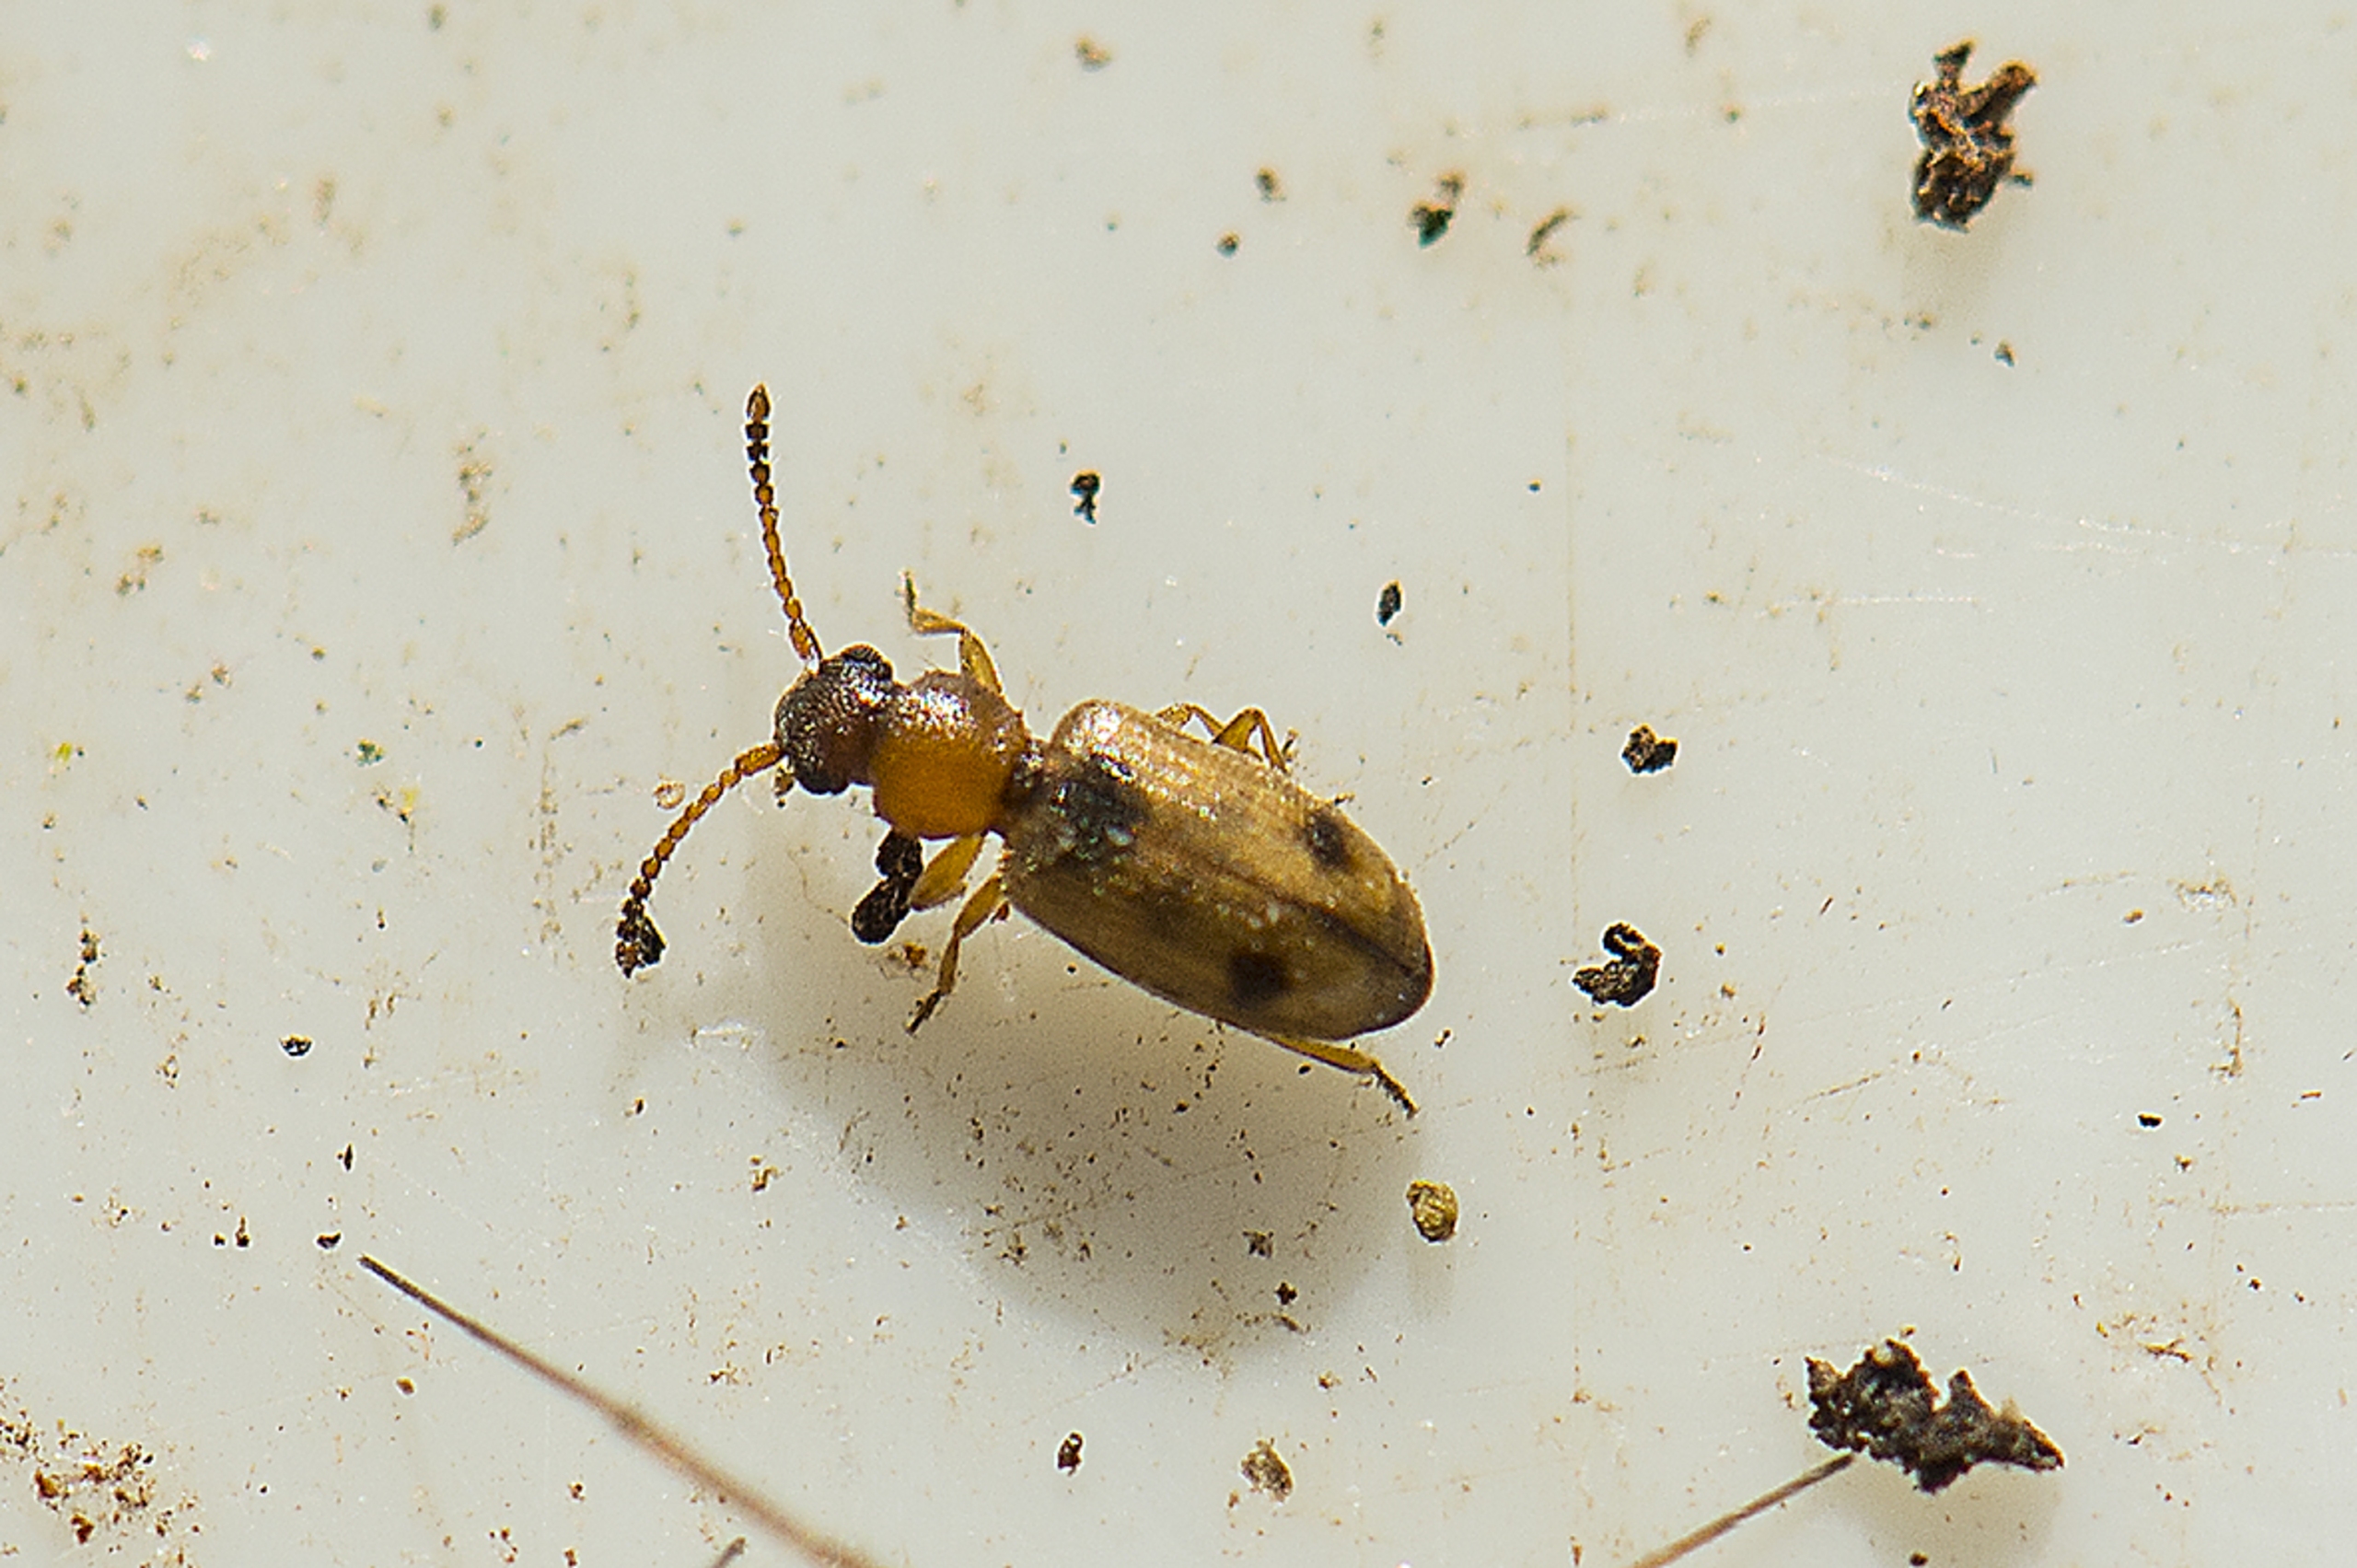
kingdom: Animalia
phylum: Arthropoda
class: Insecta
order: Coleoptera
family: Silvanidae
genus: Psammoecus
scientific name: Psammoecus bipunctatus
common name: Tagrørsfladbille
